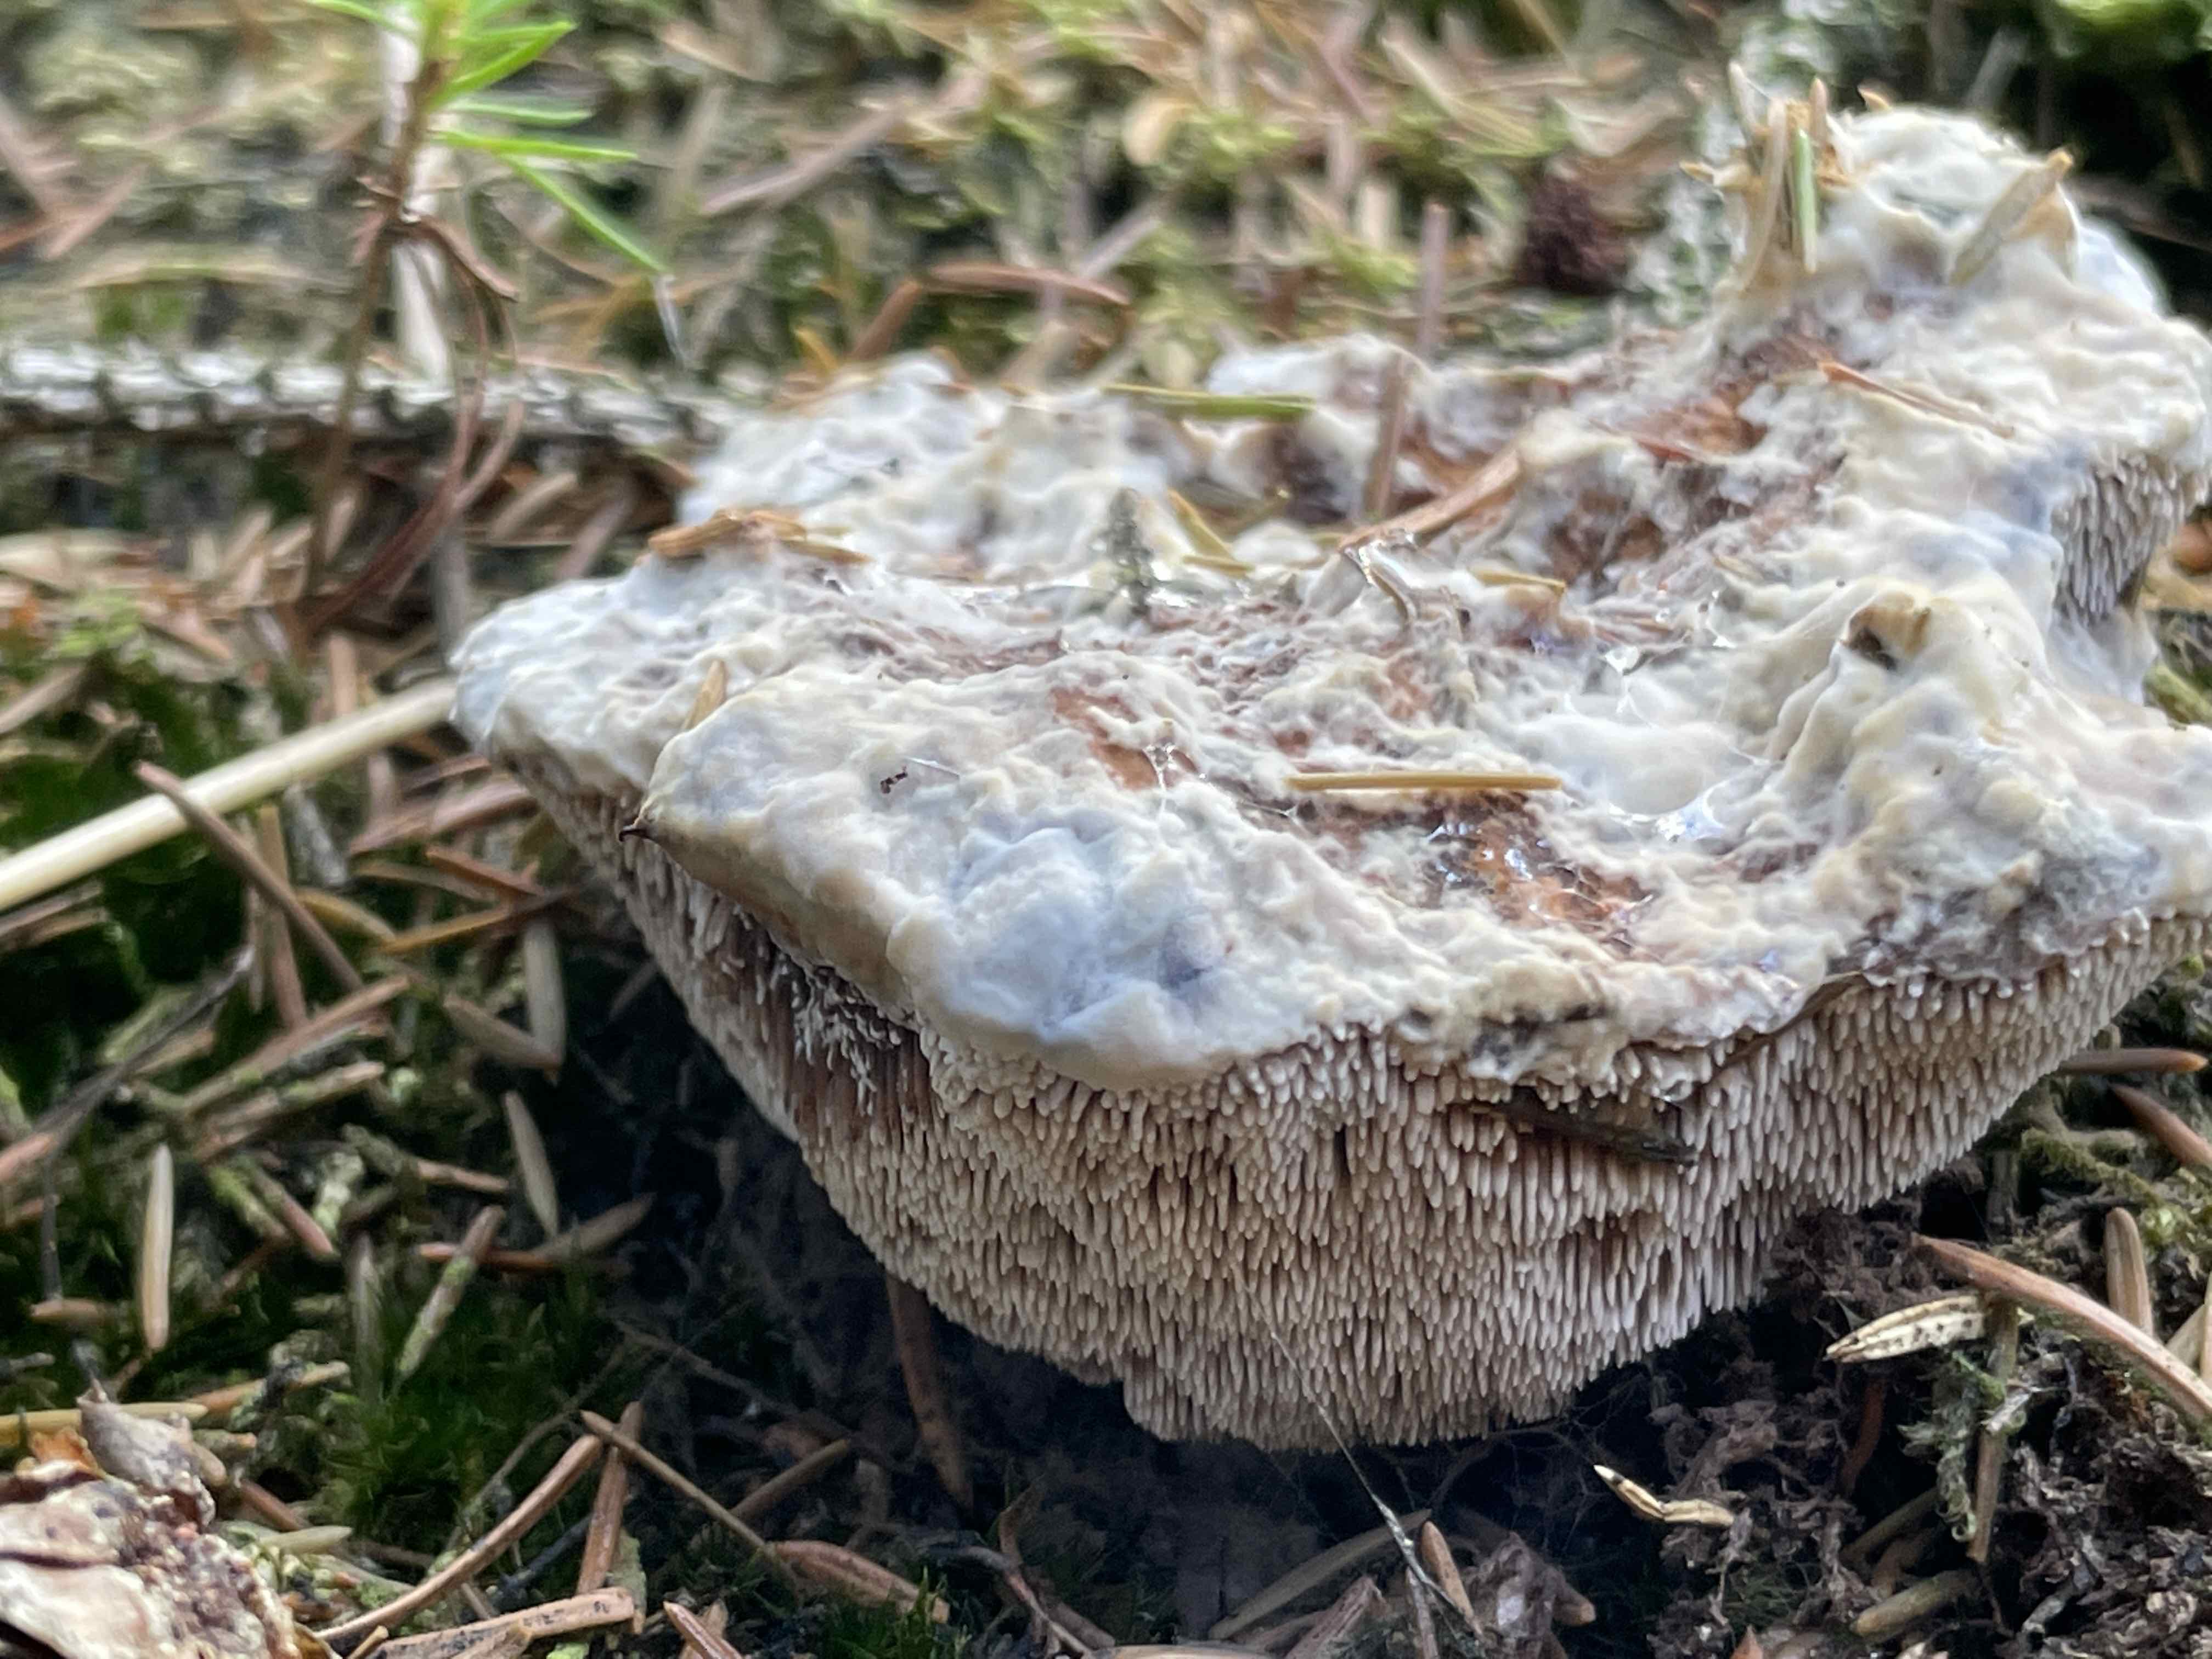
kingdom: Fungi
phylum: Basidiomycota
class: Agaricomycetes
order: Thelephorales
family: Bankeraceae
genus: Hydnellum
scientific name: Hydnellum caeruleum
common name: blålig korkpigsvamp
